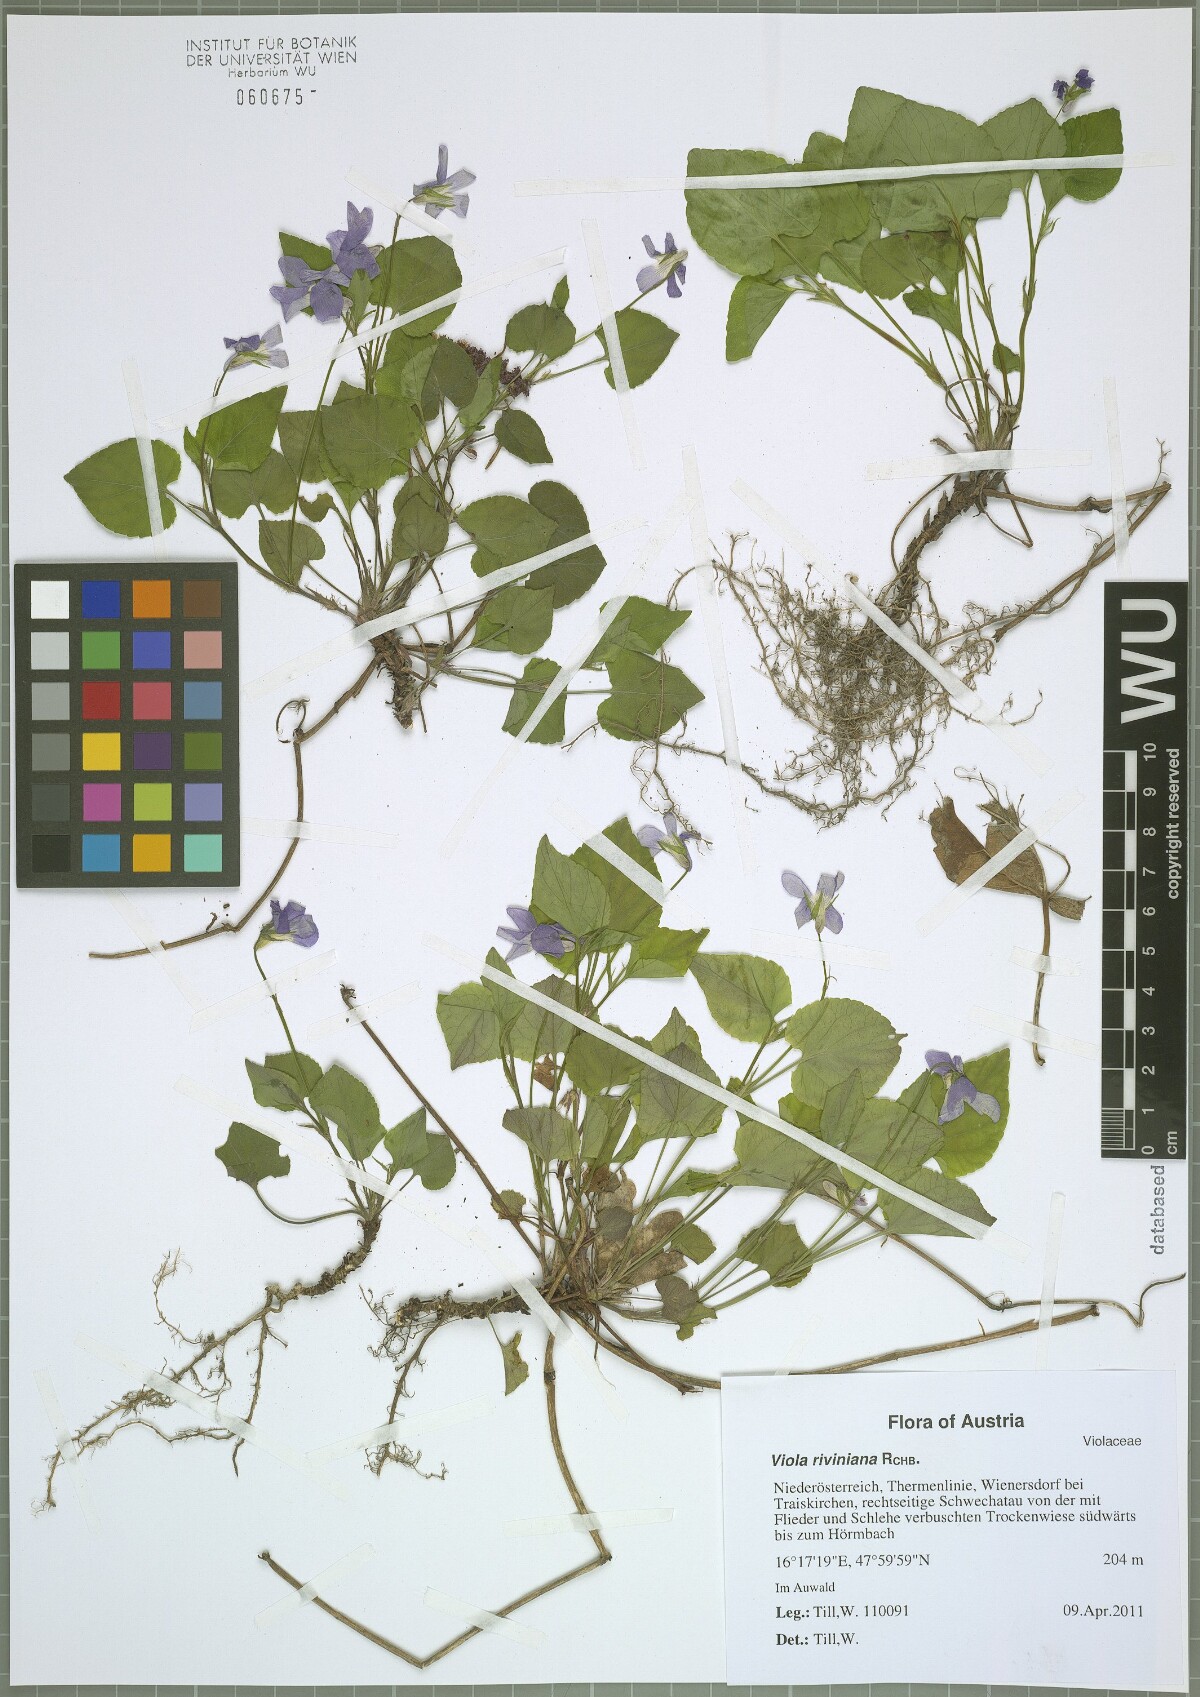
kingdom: Plantae
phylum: Tracheophyta
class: Magnoliopsida
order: Malpighiales
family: Violaceae
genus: Viola
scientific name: Viola riviniana
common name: Common dog-violet
